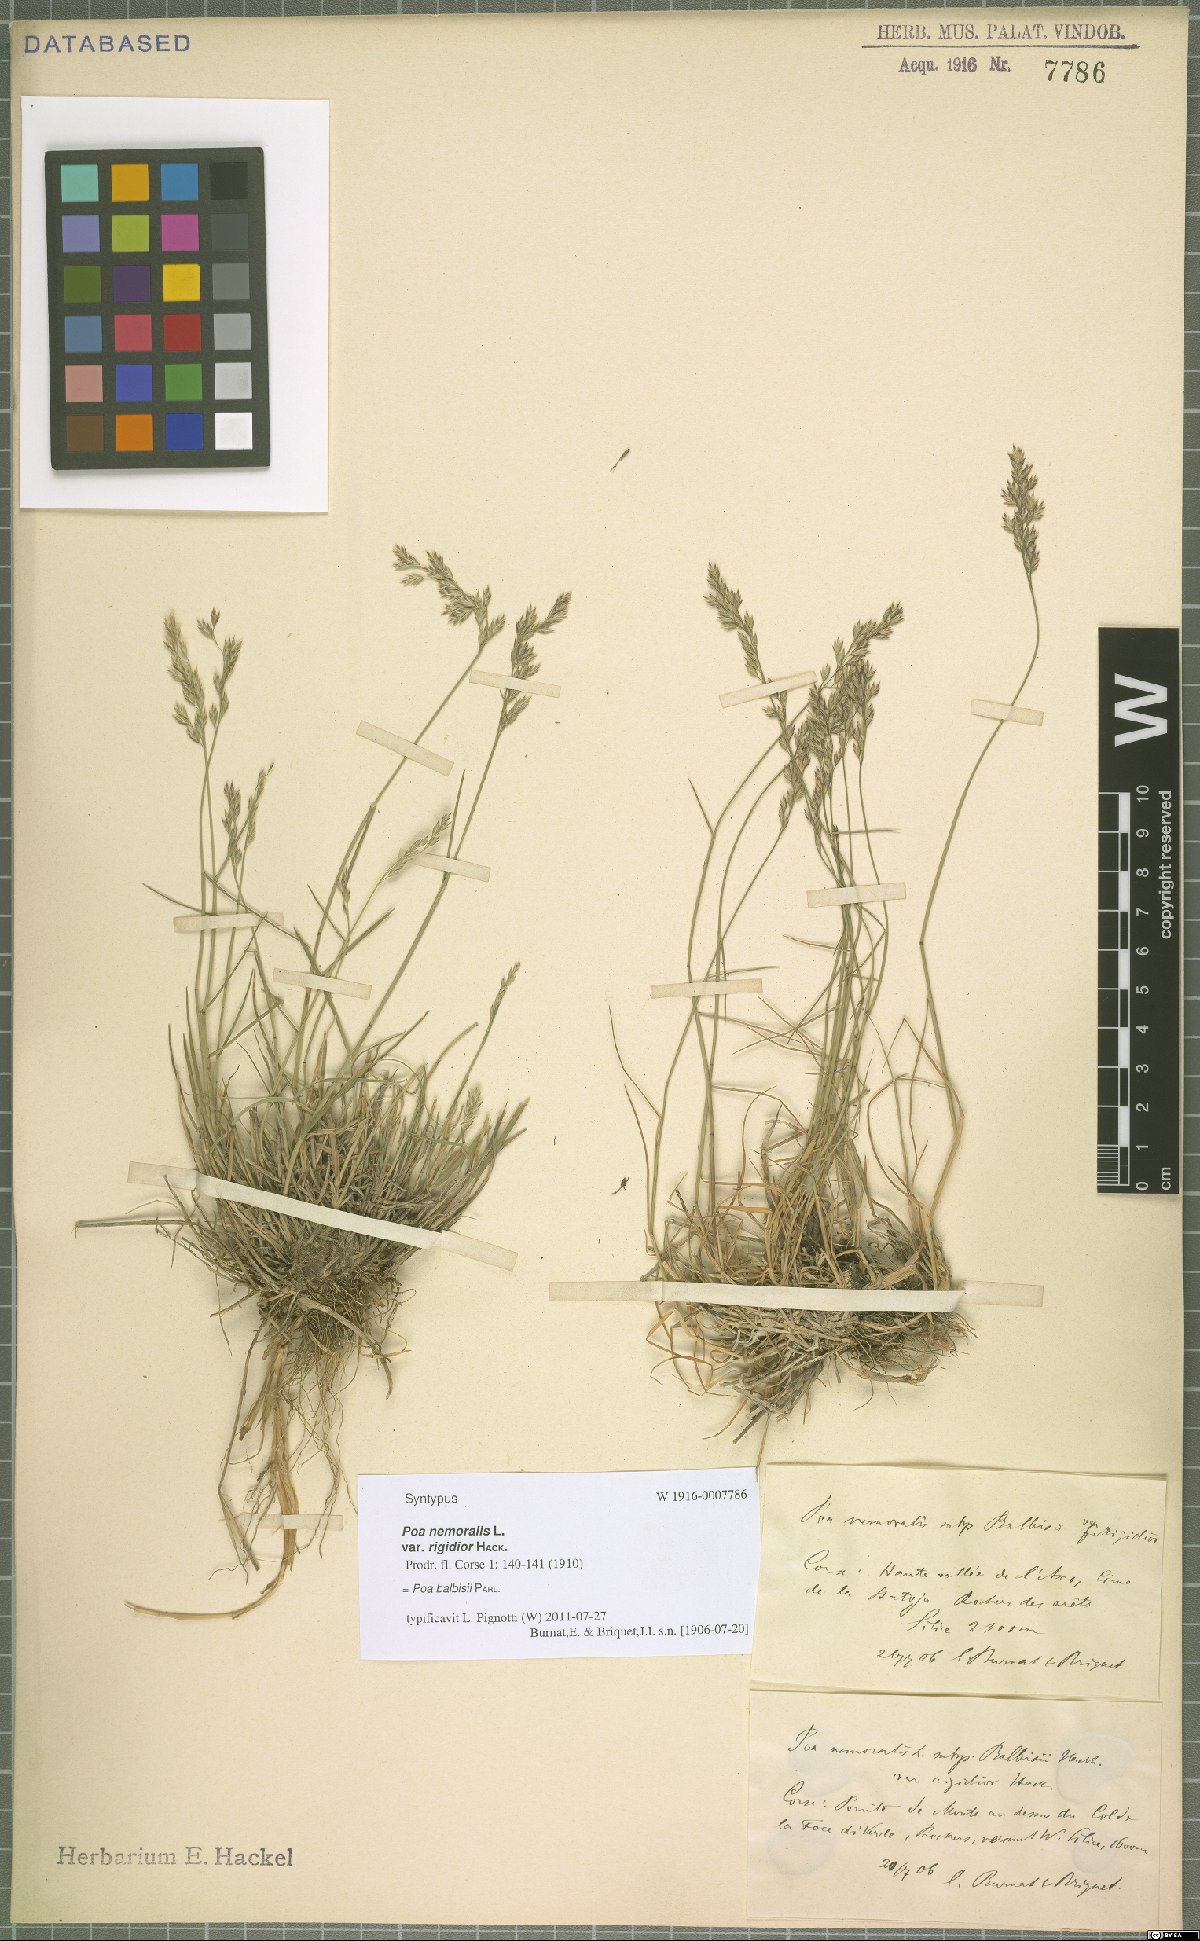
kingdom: Plantae
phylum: Tracheophyta
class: Liliopsida
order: Poales
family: Poaceae
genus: Poa
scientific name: Poa balbisii
